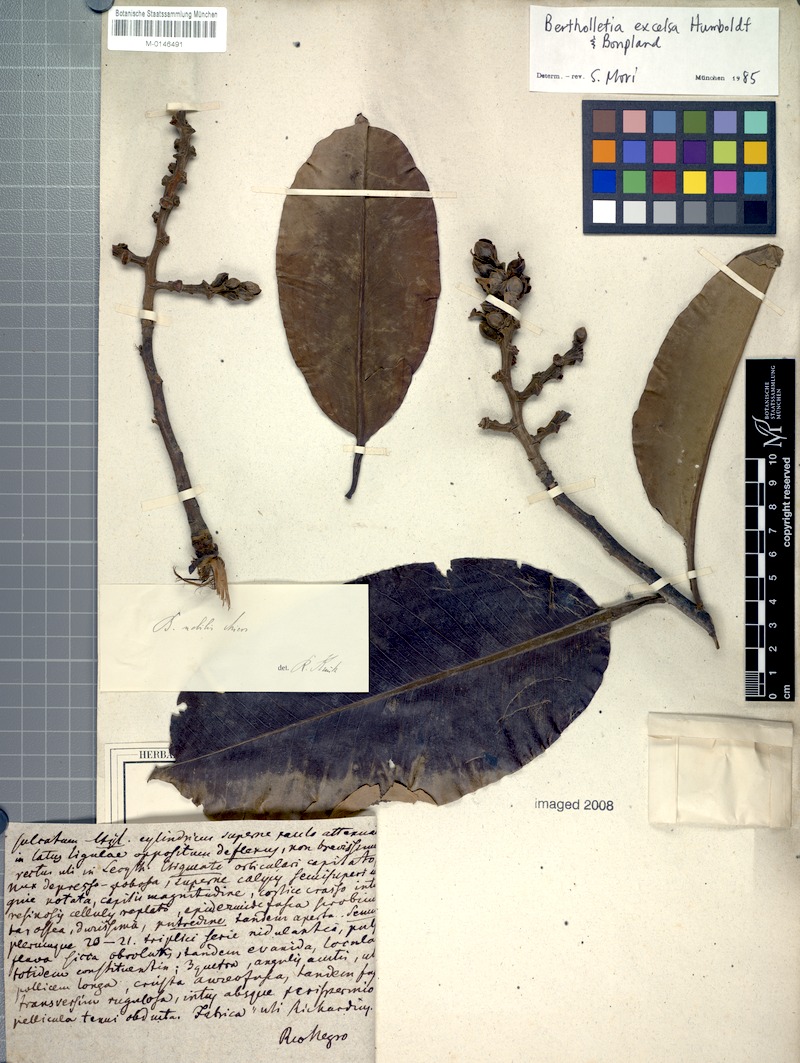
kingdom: Plantae
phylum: Tracheophyta
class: Magnoliopsida
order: Ericales
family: Lecythidaceae
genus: Bertholletia
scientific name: Bertholletia excelsa
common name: Brazil-nut tree
